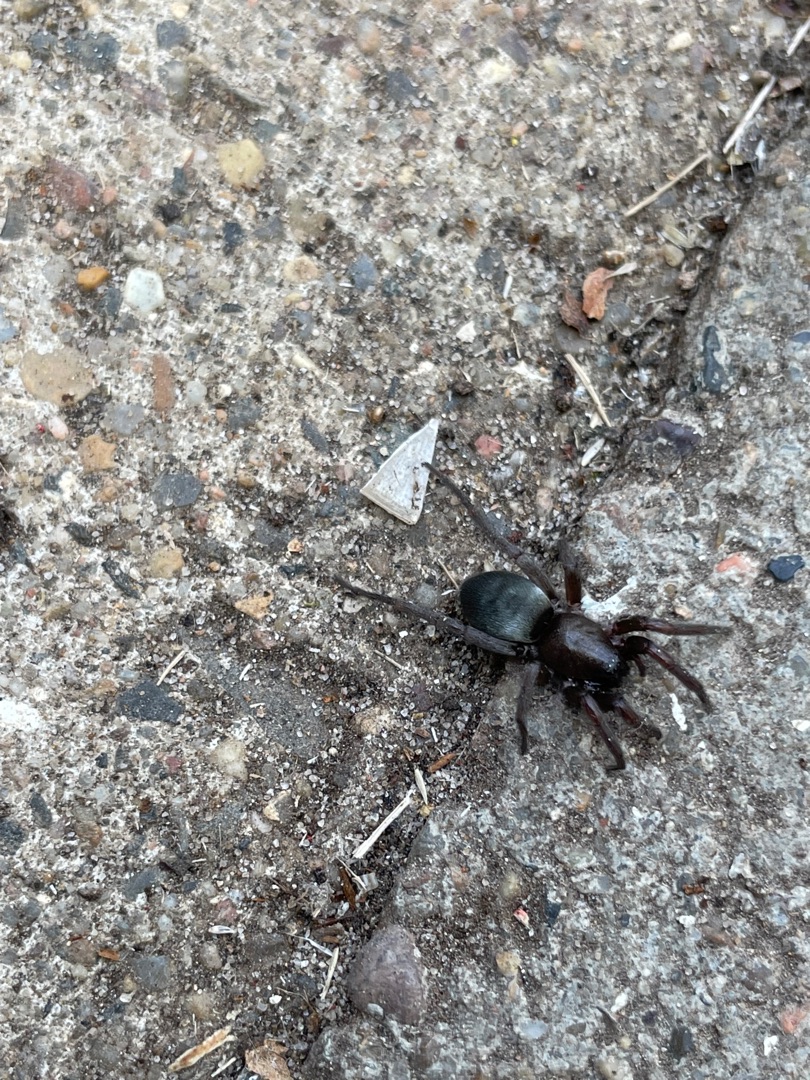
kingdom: Animalia
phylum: Arthropoda
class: Arachnida
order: Araneae
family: Gnaphosidae
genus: Scotophaeus
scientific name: Scotophaeus
